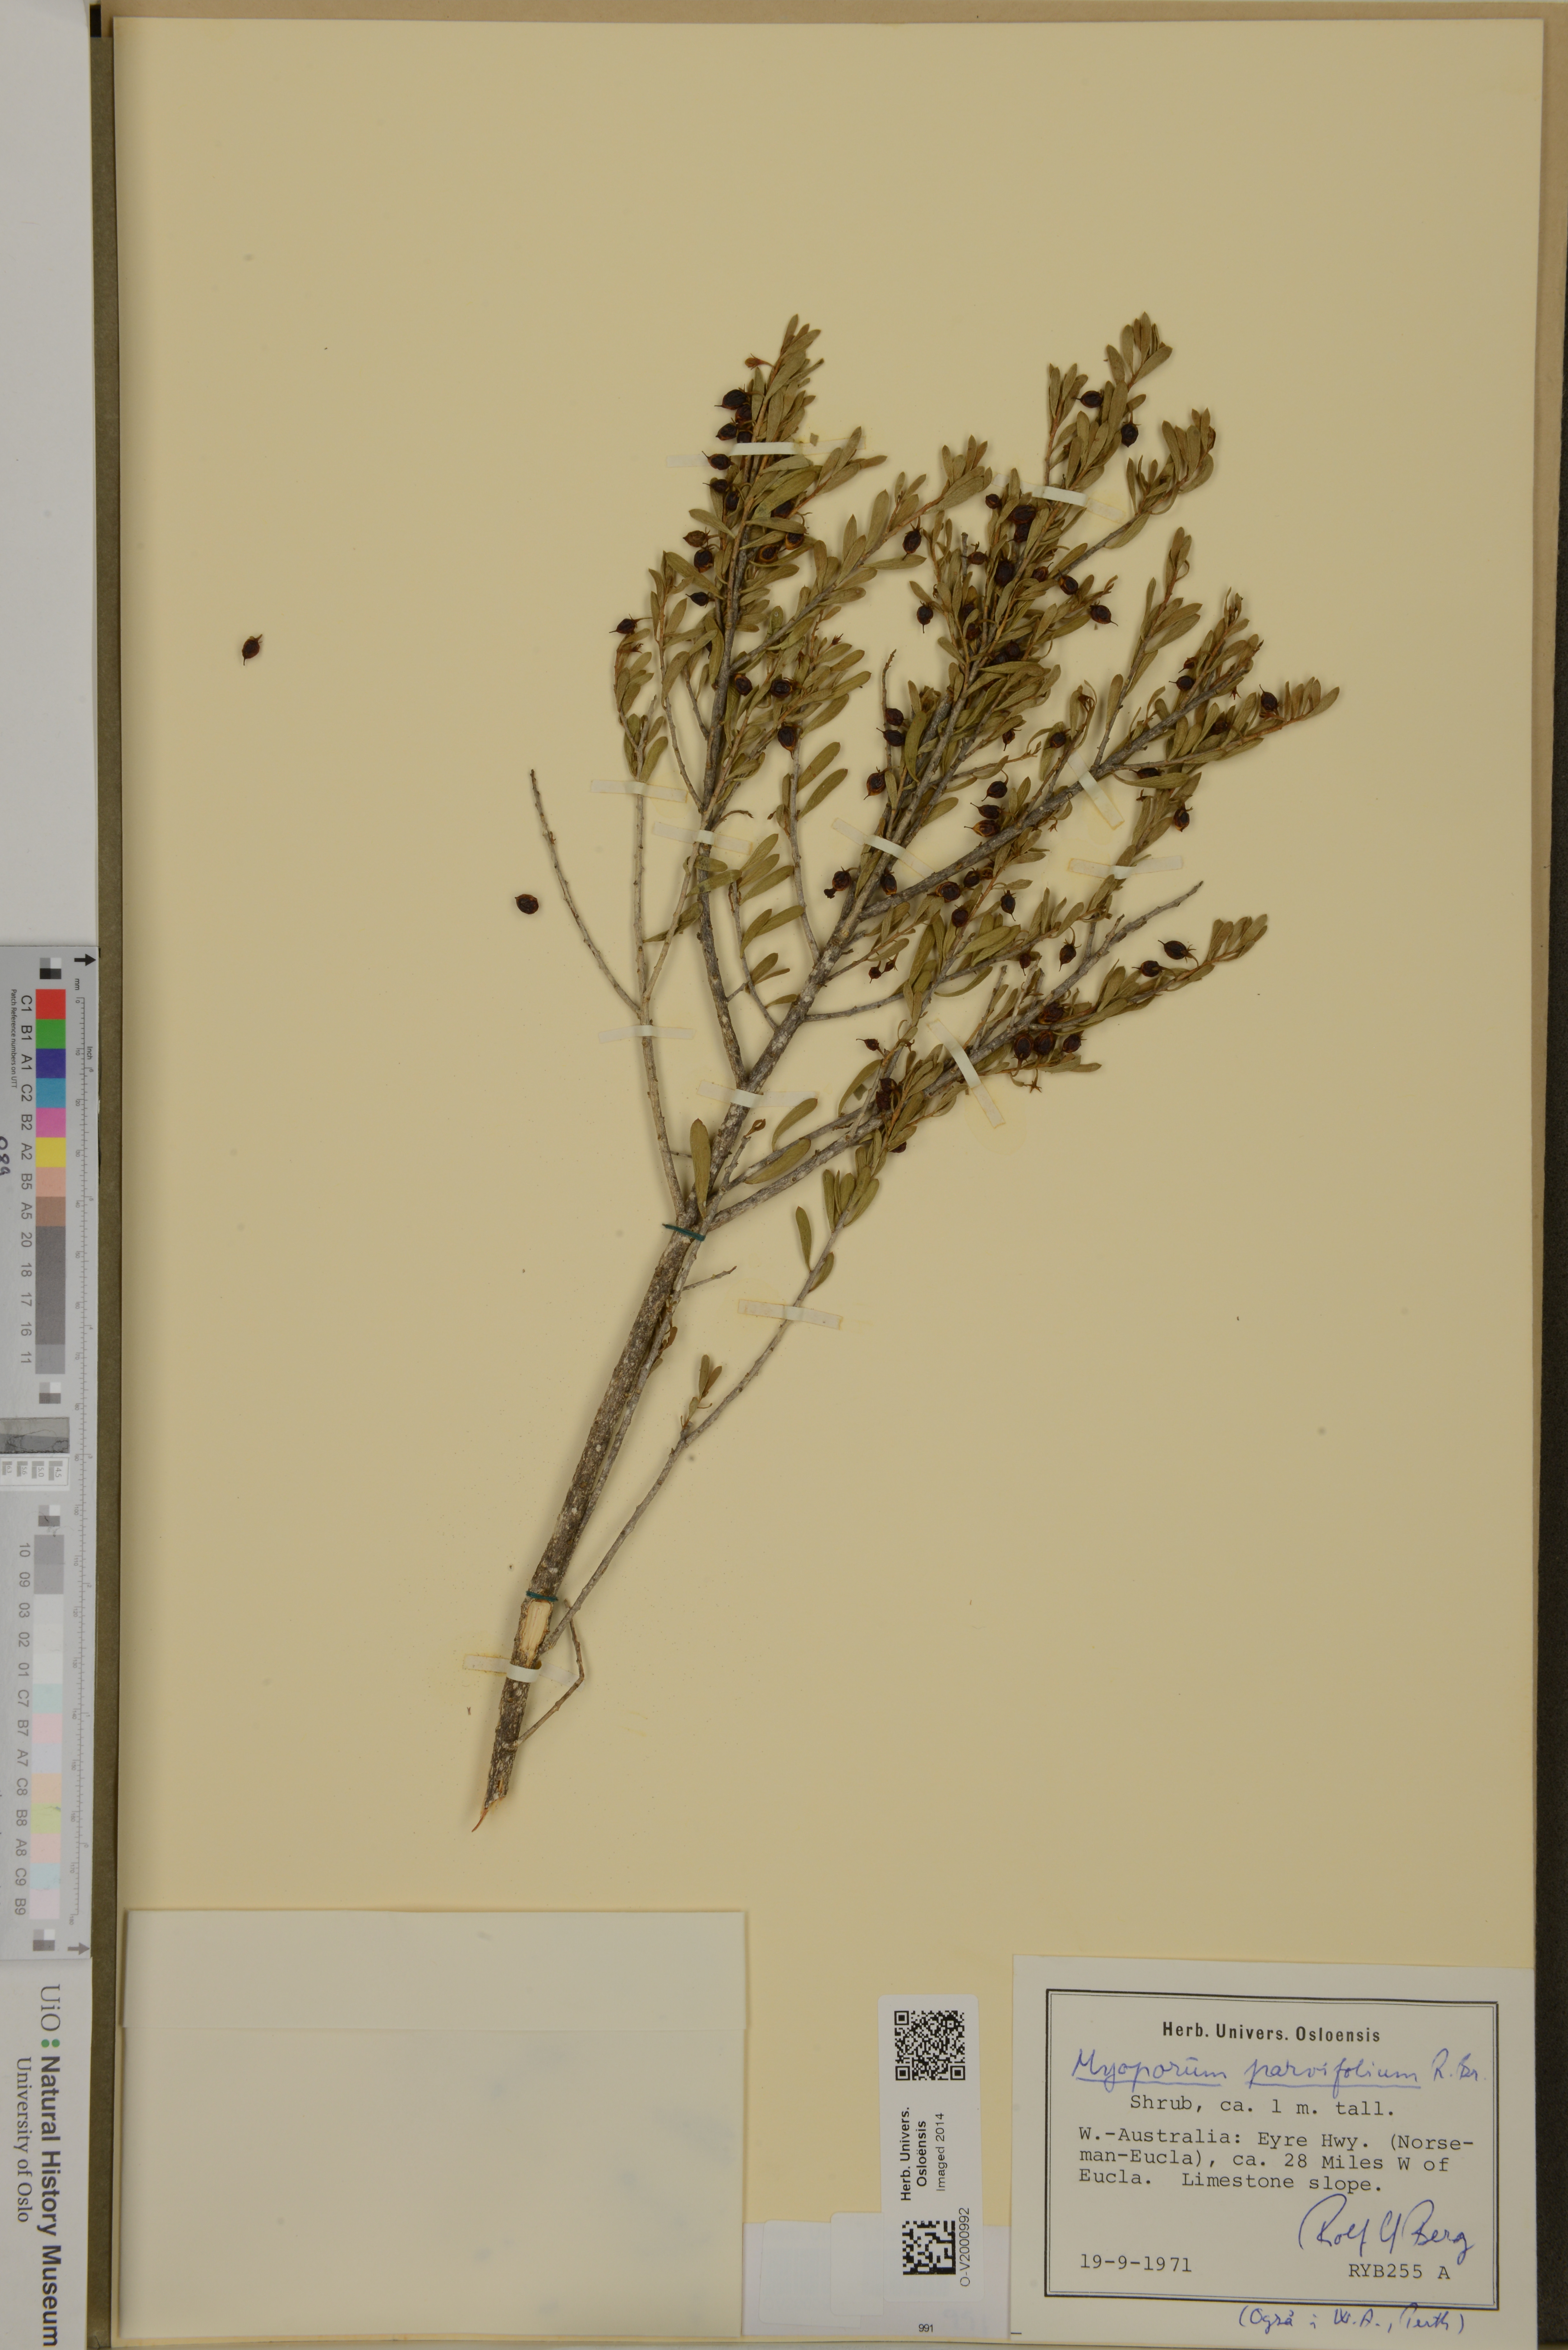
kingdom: Plantae
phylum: Tracheophyta
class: Magnoliopsida
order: Lamiales
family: Scrophulariaceae
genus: Myoporum
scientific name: Myoporum parvifolium
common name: Dwarf native-myrtle
